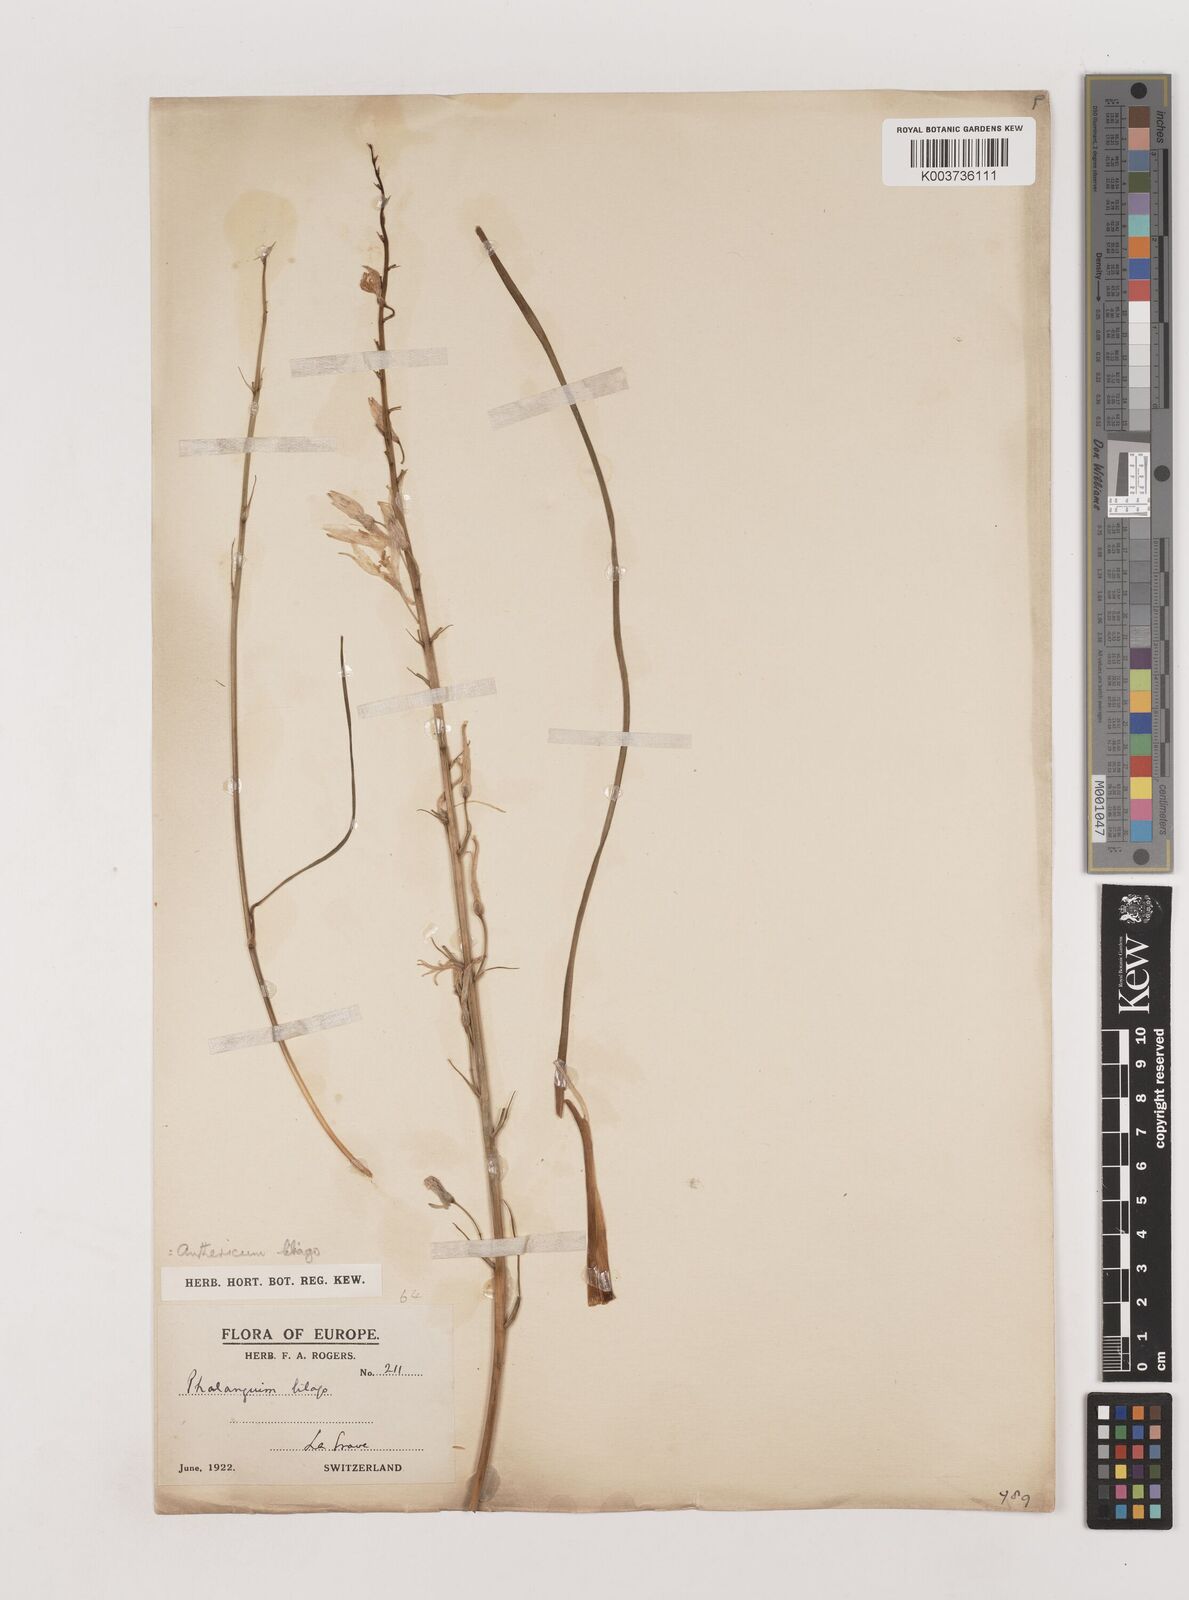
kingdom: Plantae
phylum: Tracheophyta
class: Liliopsida
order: Asparagales
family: Asparagaceae
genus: Anthericum
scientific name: Anthericum liliago
